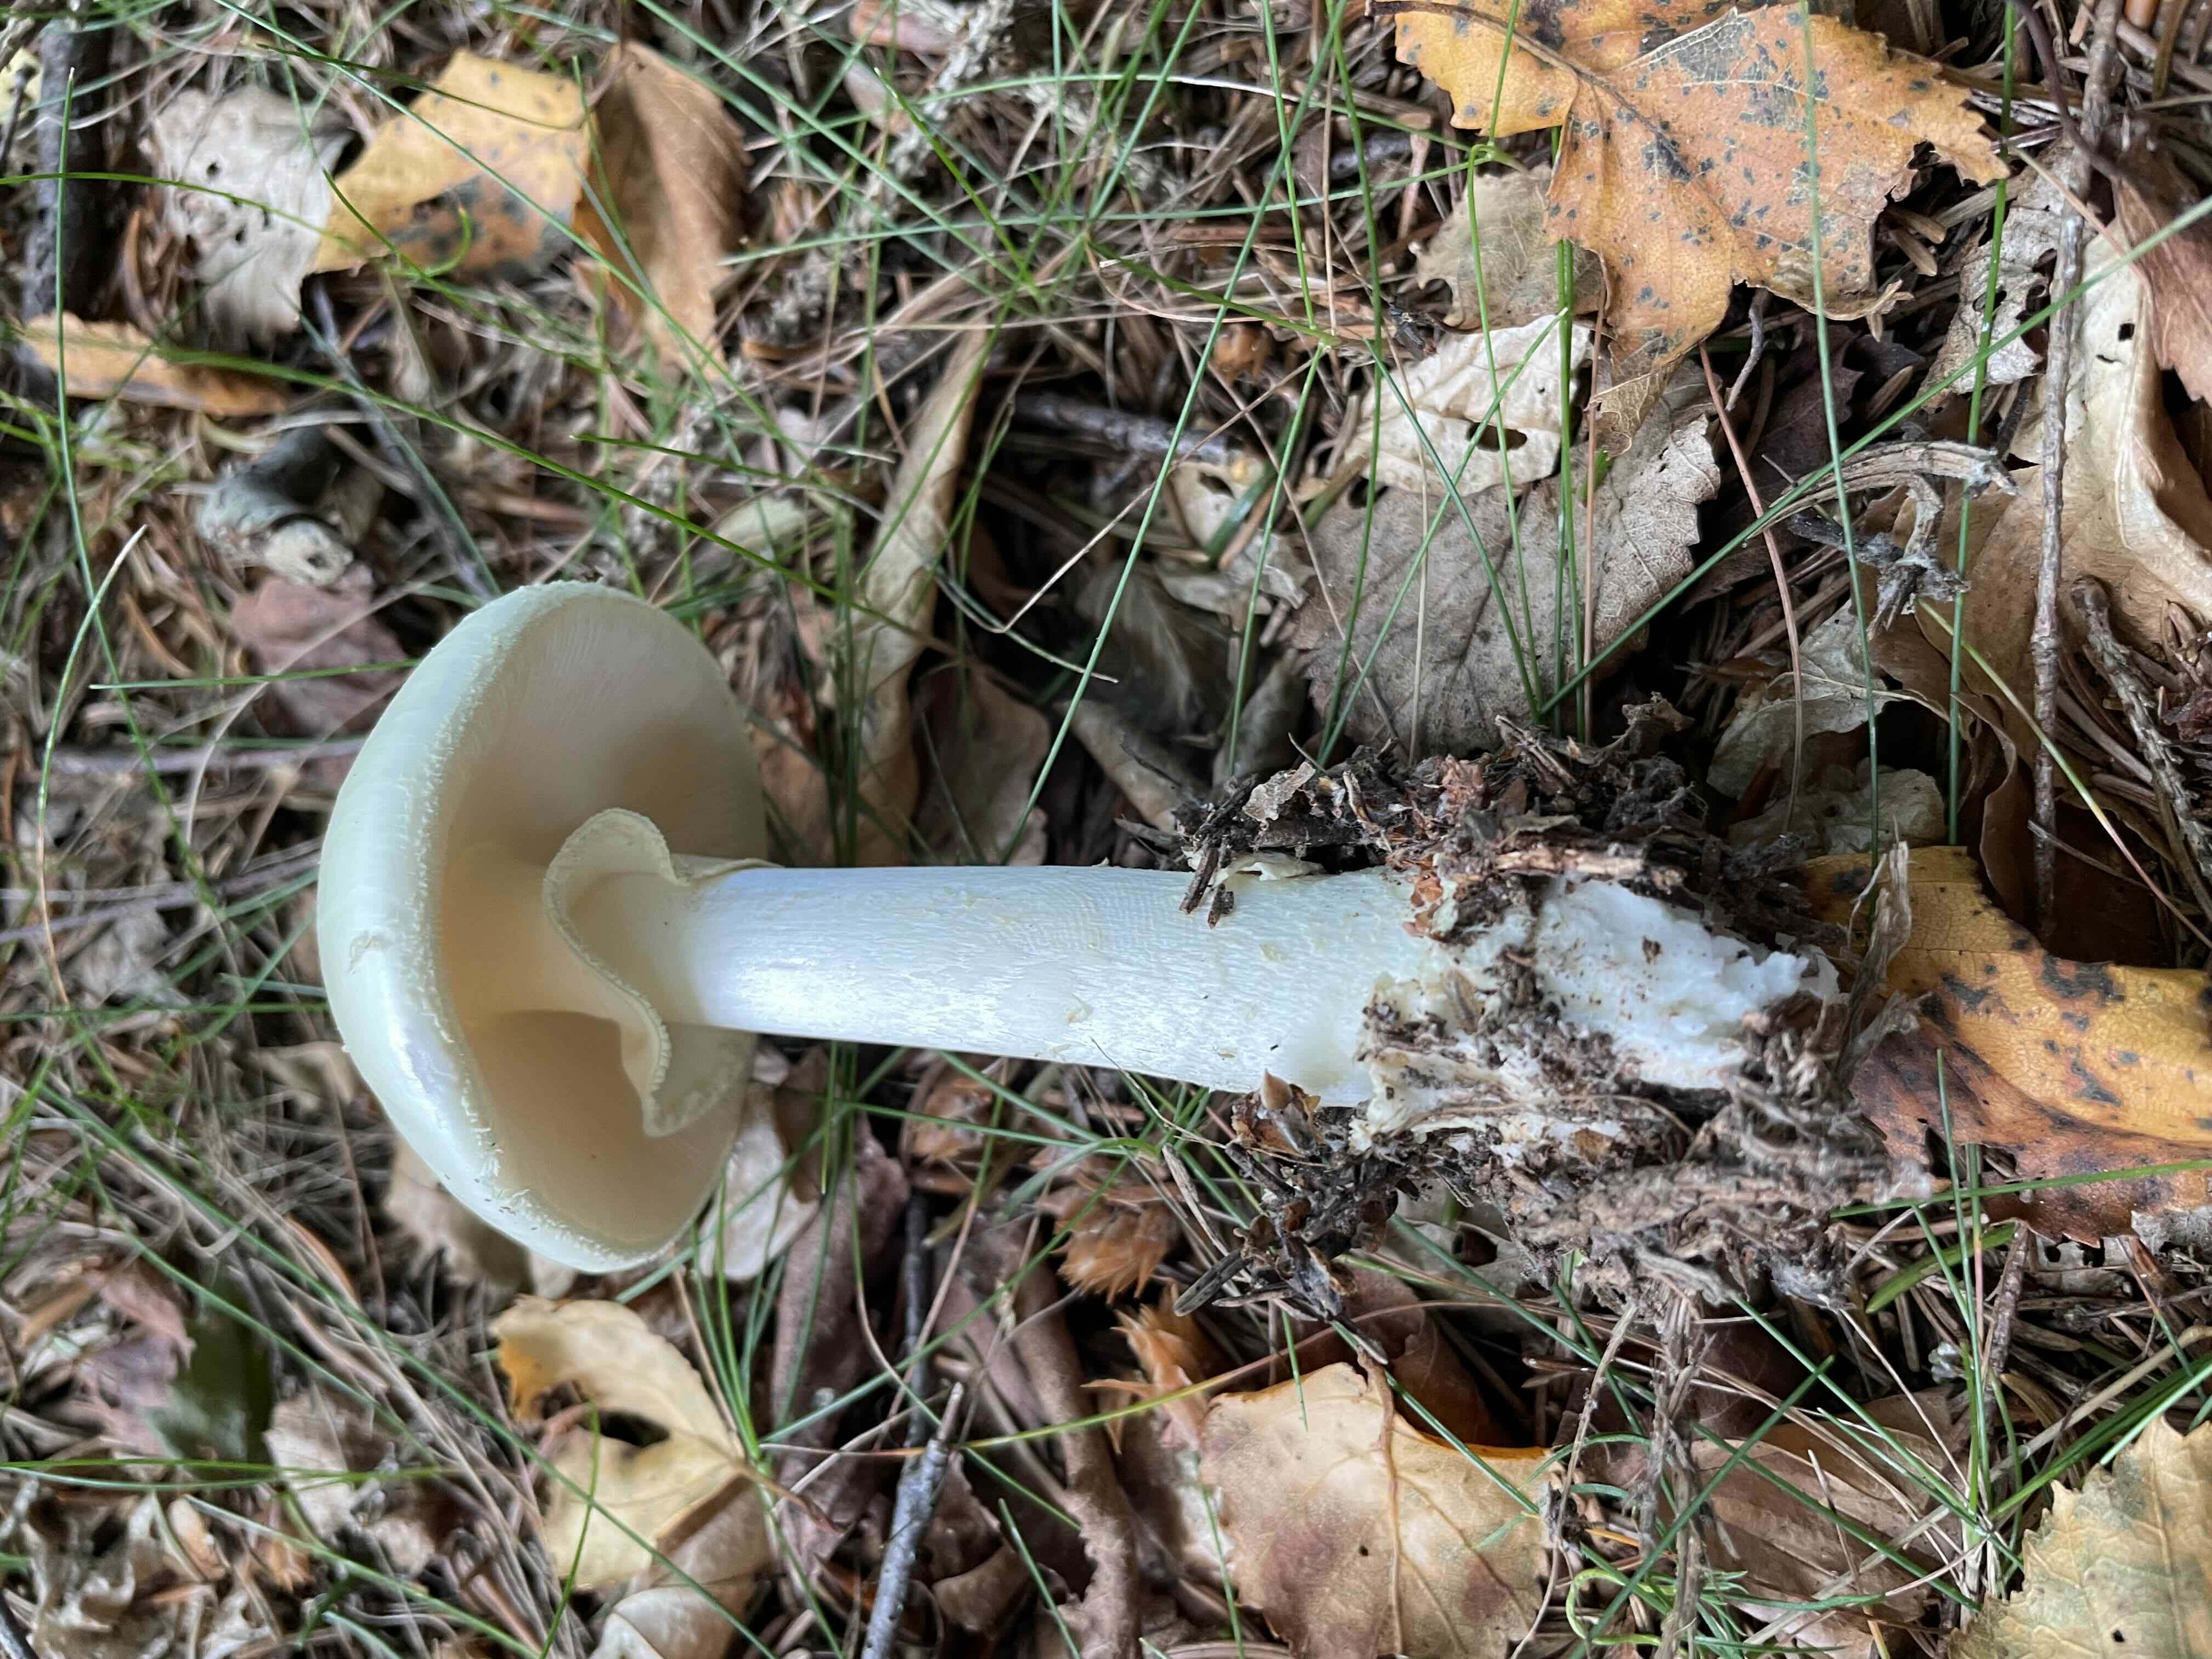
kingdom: Fungi
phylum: Basidiomycota
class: Agaricomycetes
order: Agaricales
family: Amanitaceae
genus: Amanita
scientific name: Amanita citrina
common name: kugleknoldet fluesvamp
